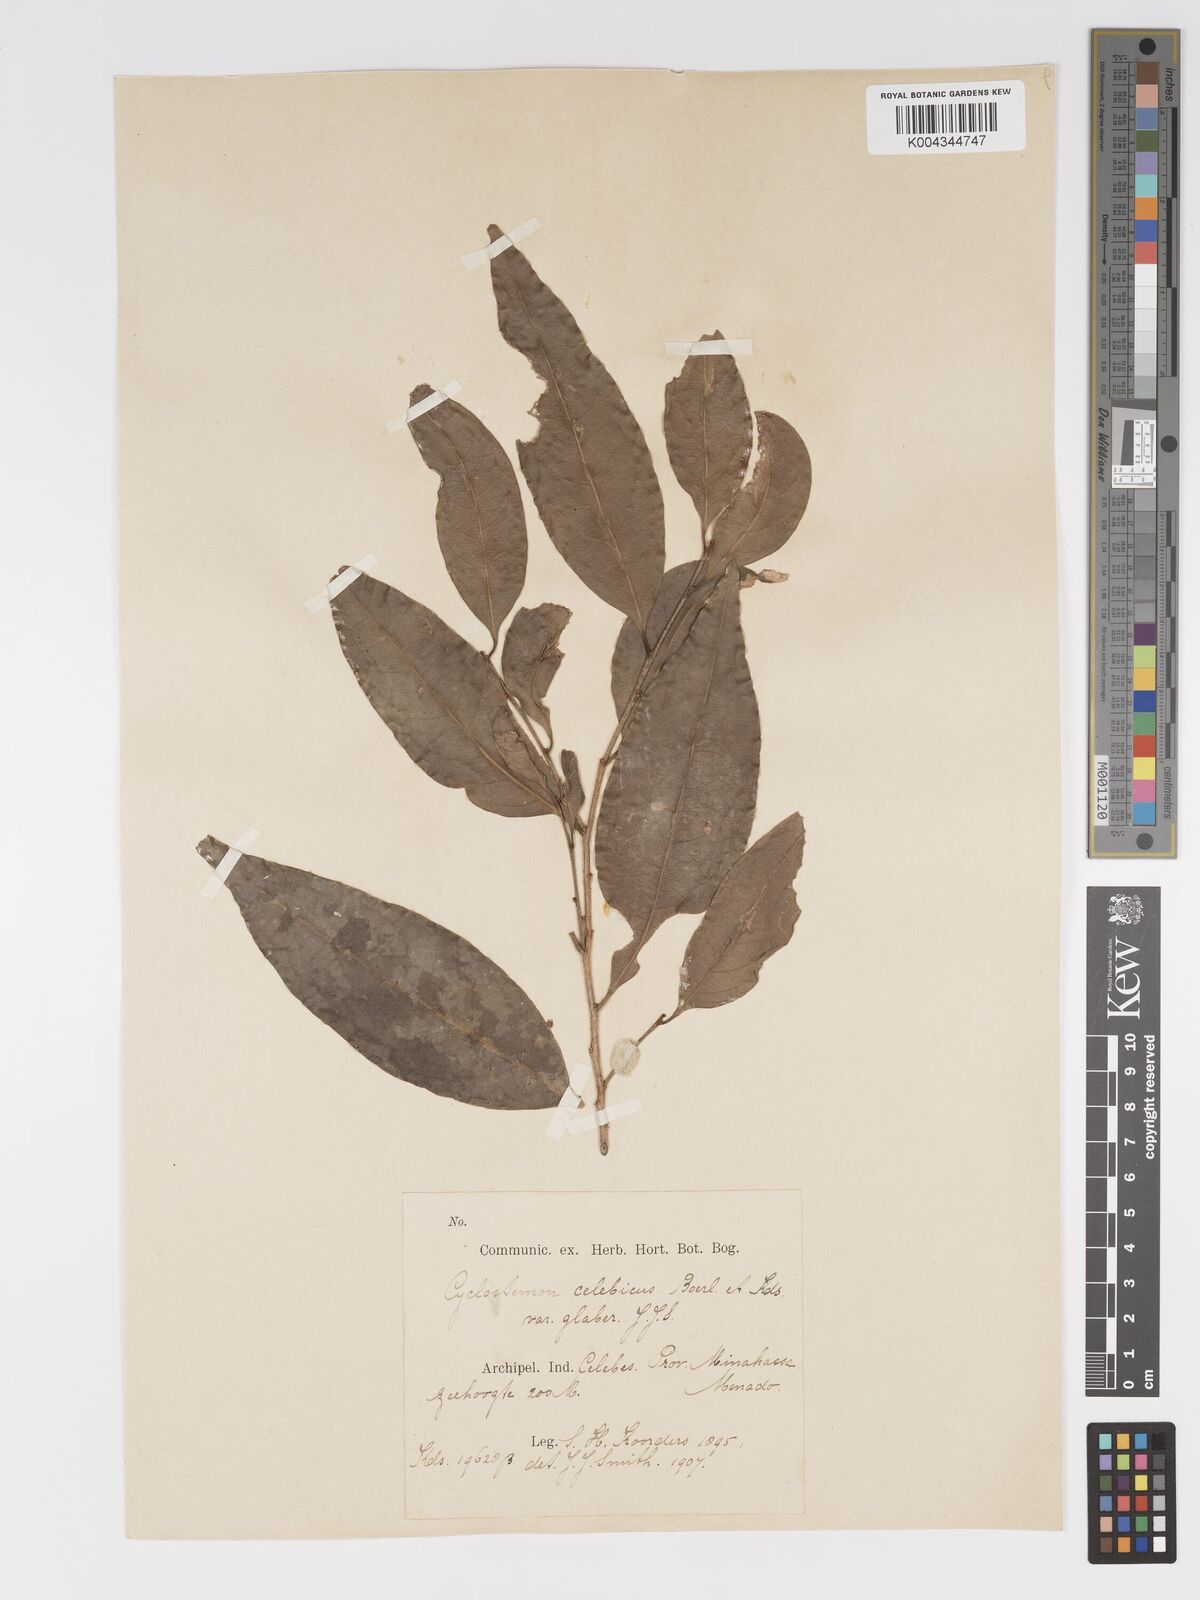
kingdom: Plantae
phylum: Tracheophyta
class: Magnoliopsida
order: Malpighiales
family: Putranjivaceae
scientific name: Putranjivaceae
